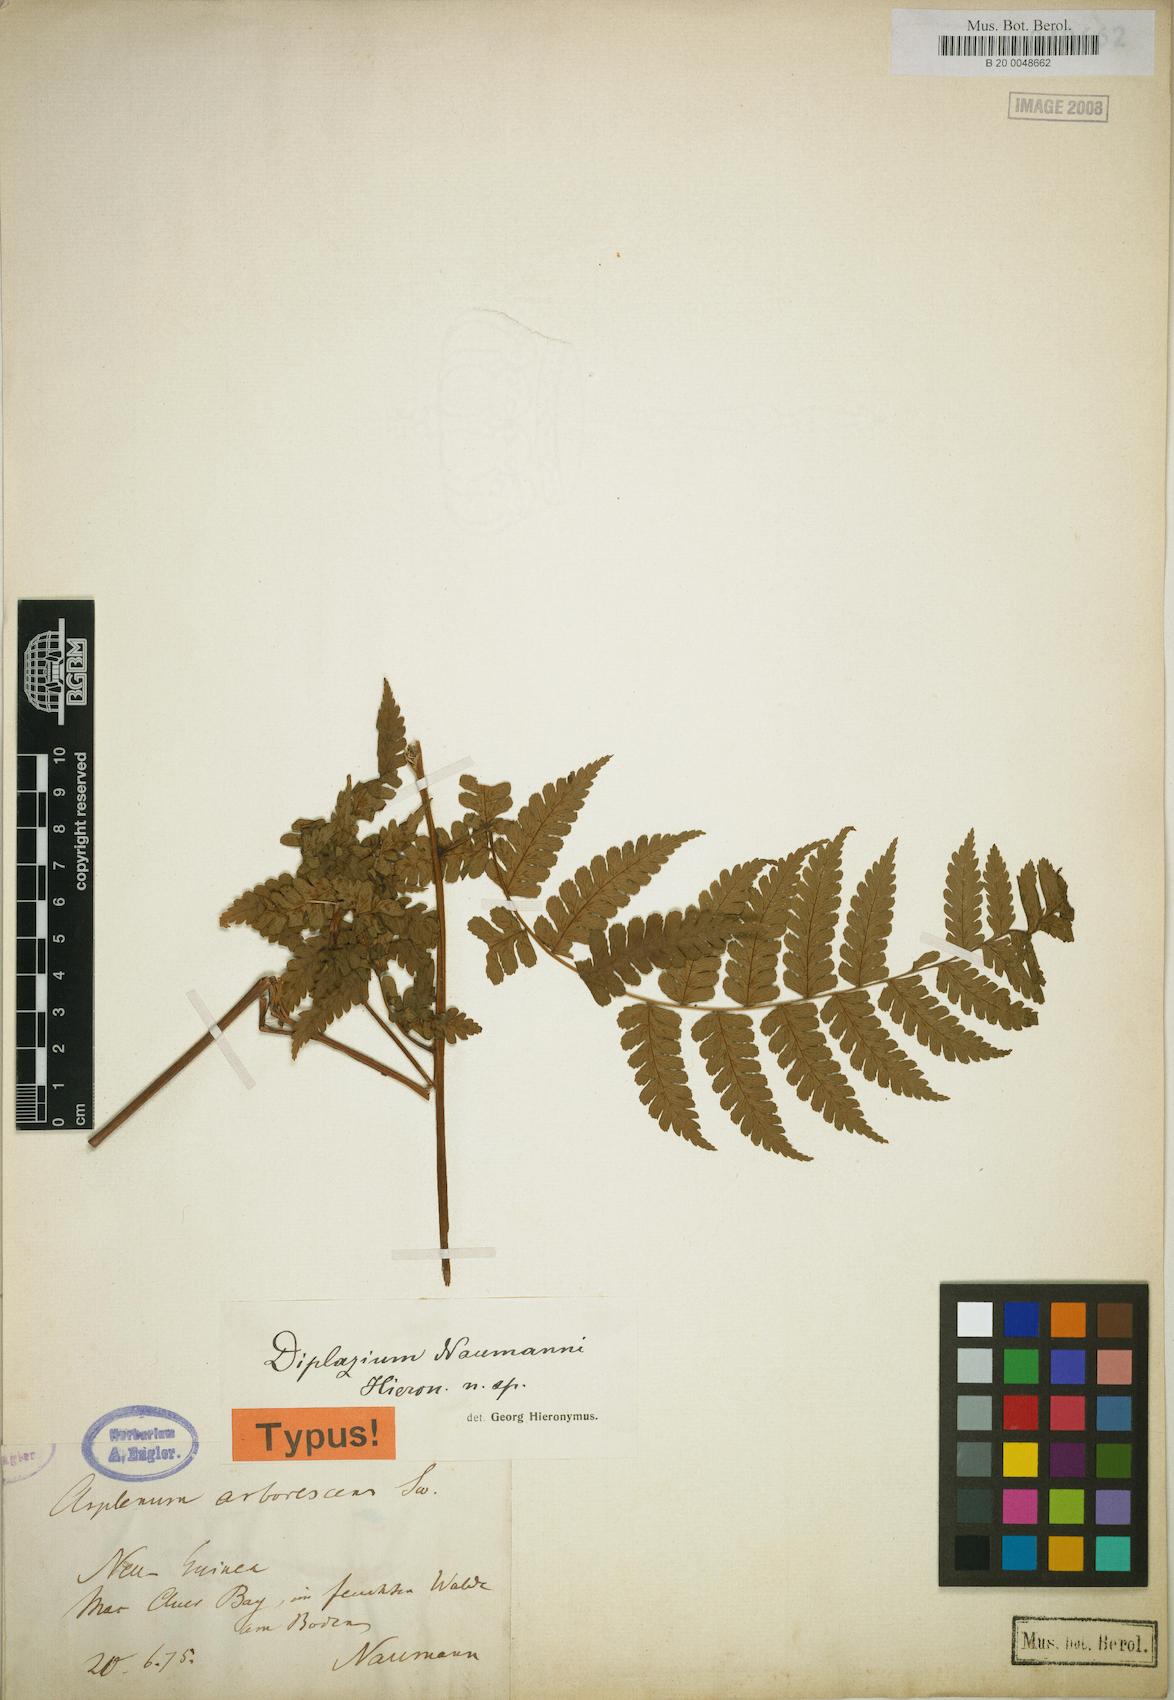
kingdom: Plantae
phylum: Tracheophyta
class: Polypodiopsida
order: Polypodiales
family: Athyriaceae
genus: Diplazium
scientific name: Diplazium prolongatum
